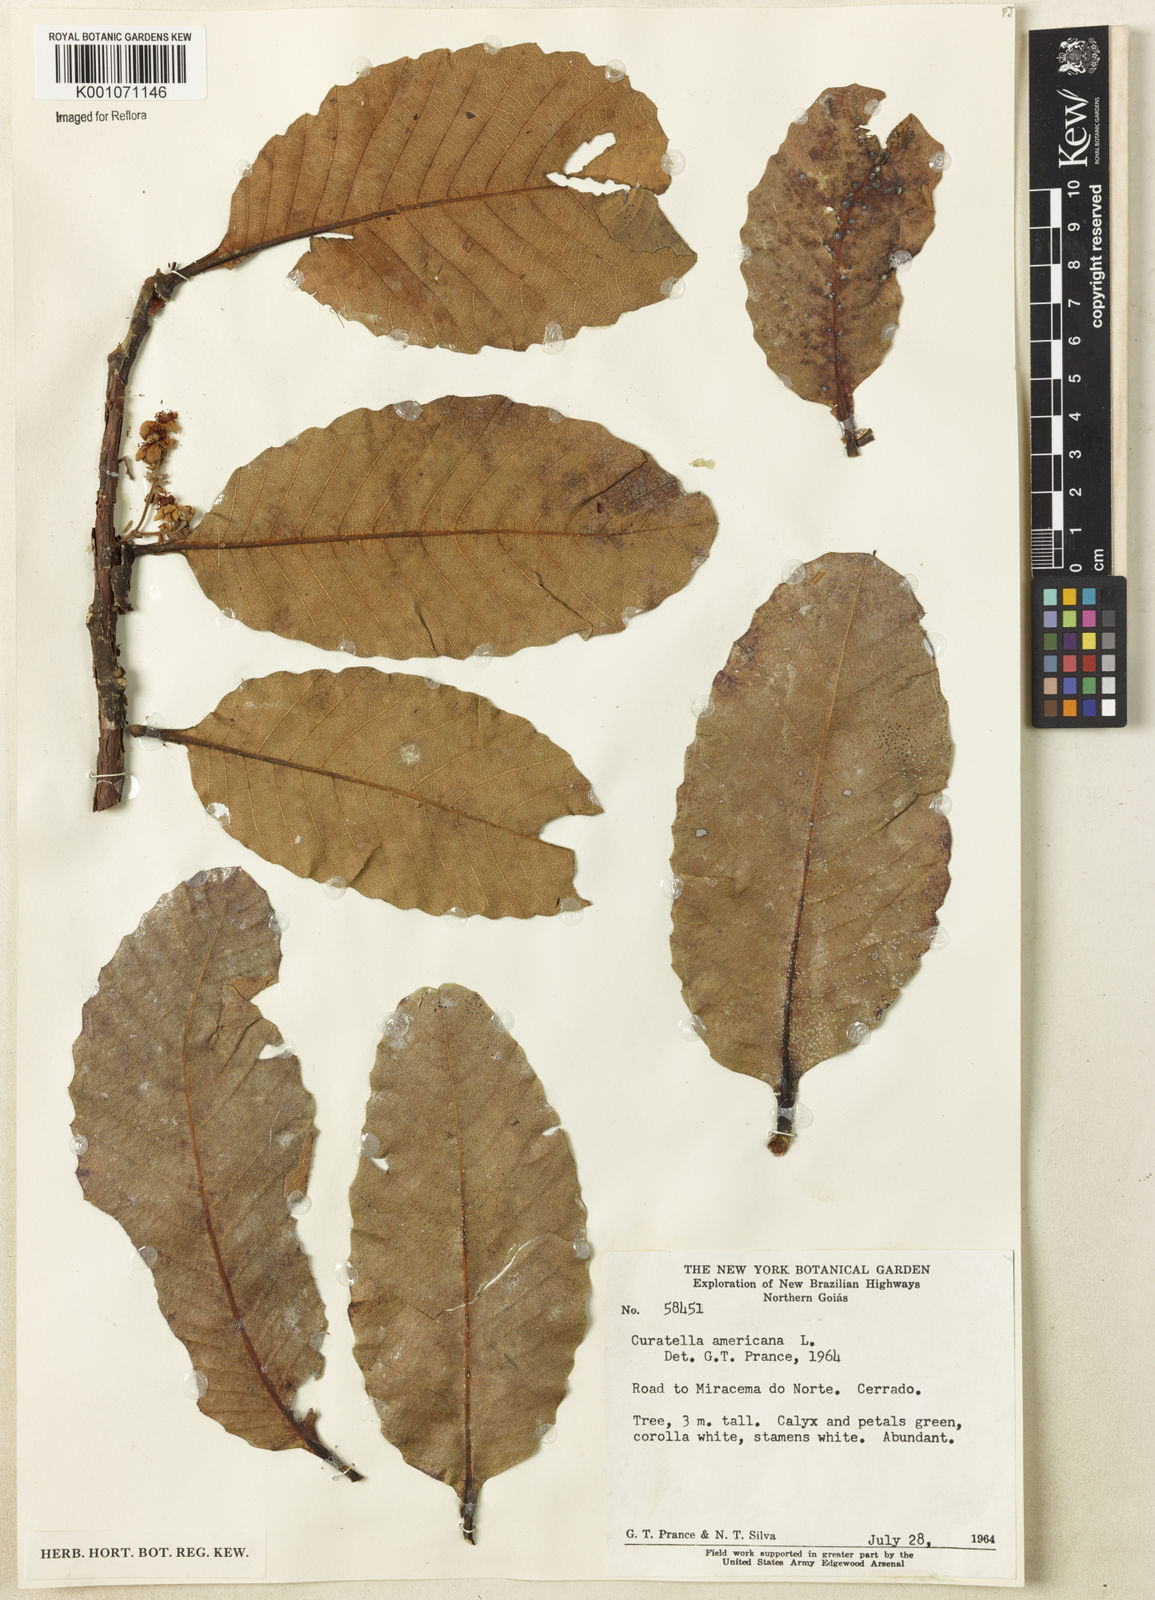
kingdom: Plantae
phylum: Tracheophyta
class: Magnoliopsida
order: Dilleniales
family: Dilleniaceae
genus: Curatella
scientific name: Curatella americana
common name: Sandpaper tree
